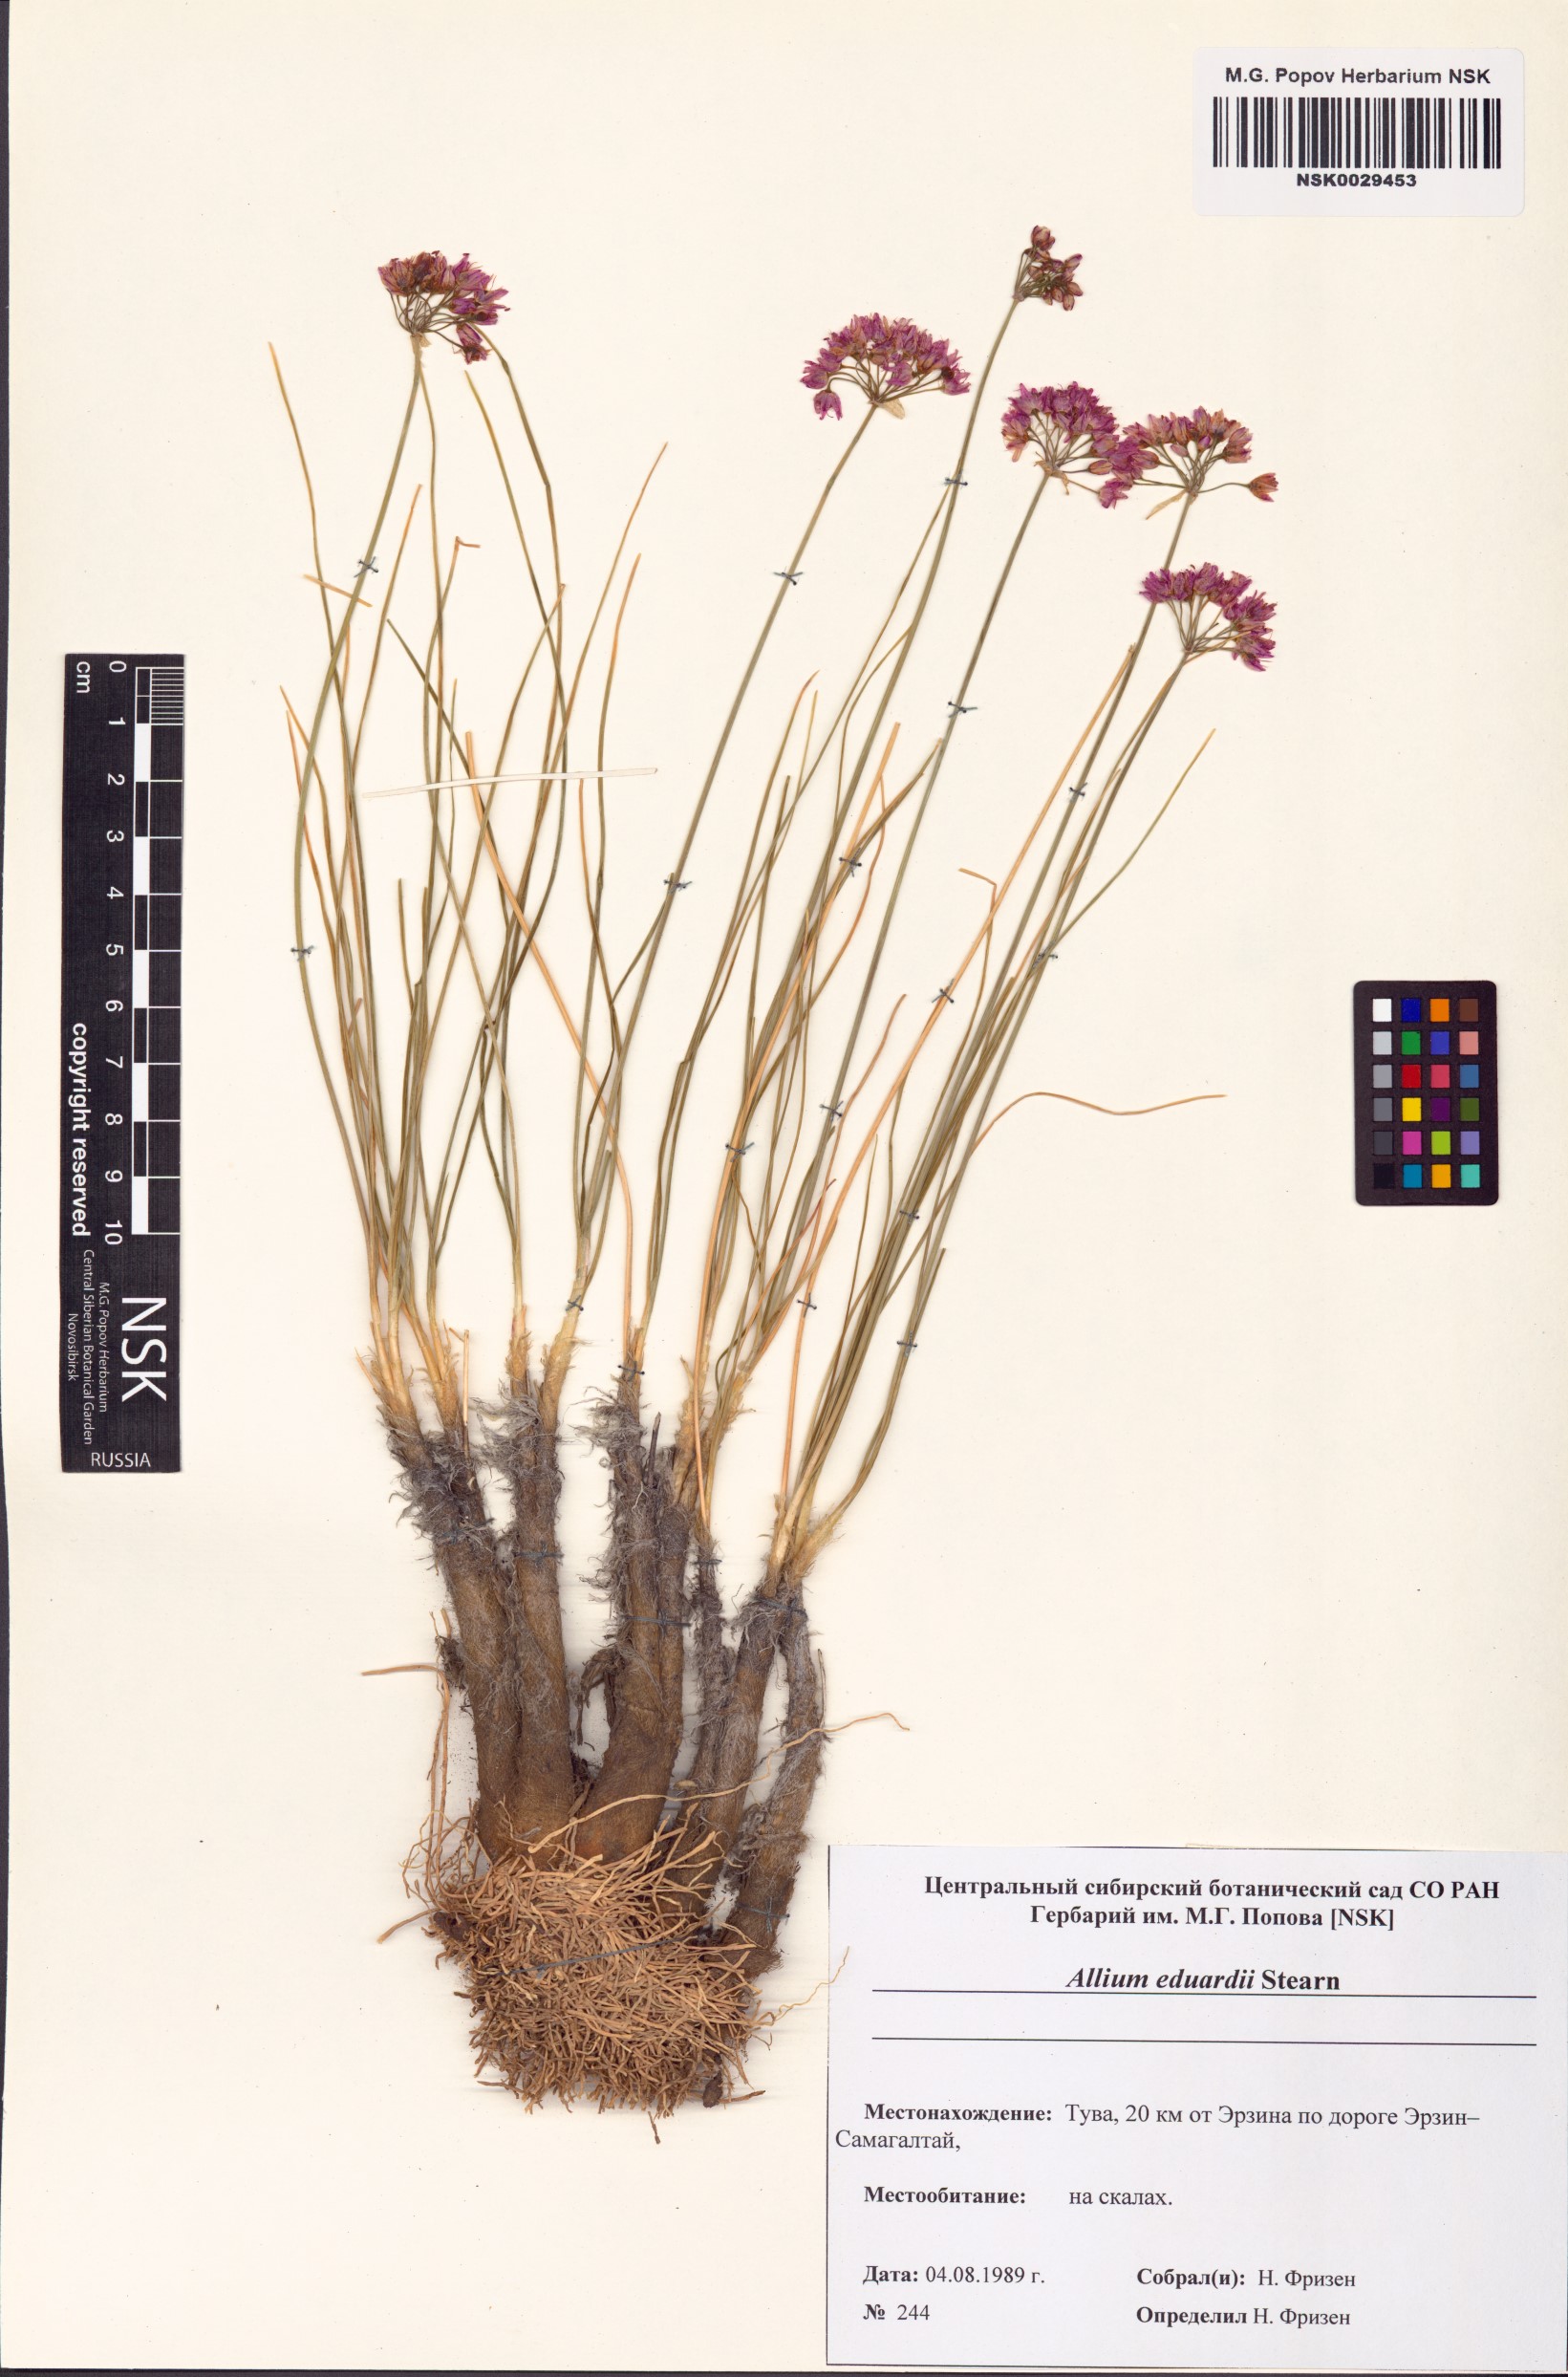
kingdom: Plantae
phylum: Tracheophyta
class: Liliopsida
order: Asparagales
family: Amaryllidaceae
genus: Allium
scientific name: Allium eduardi
